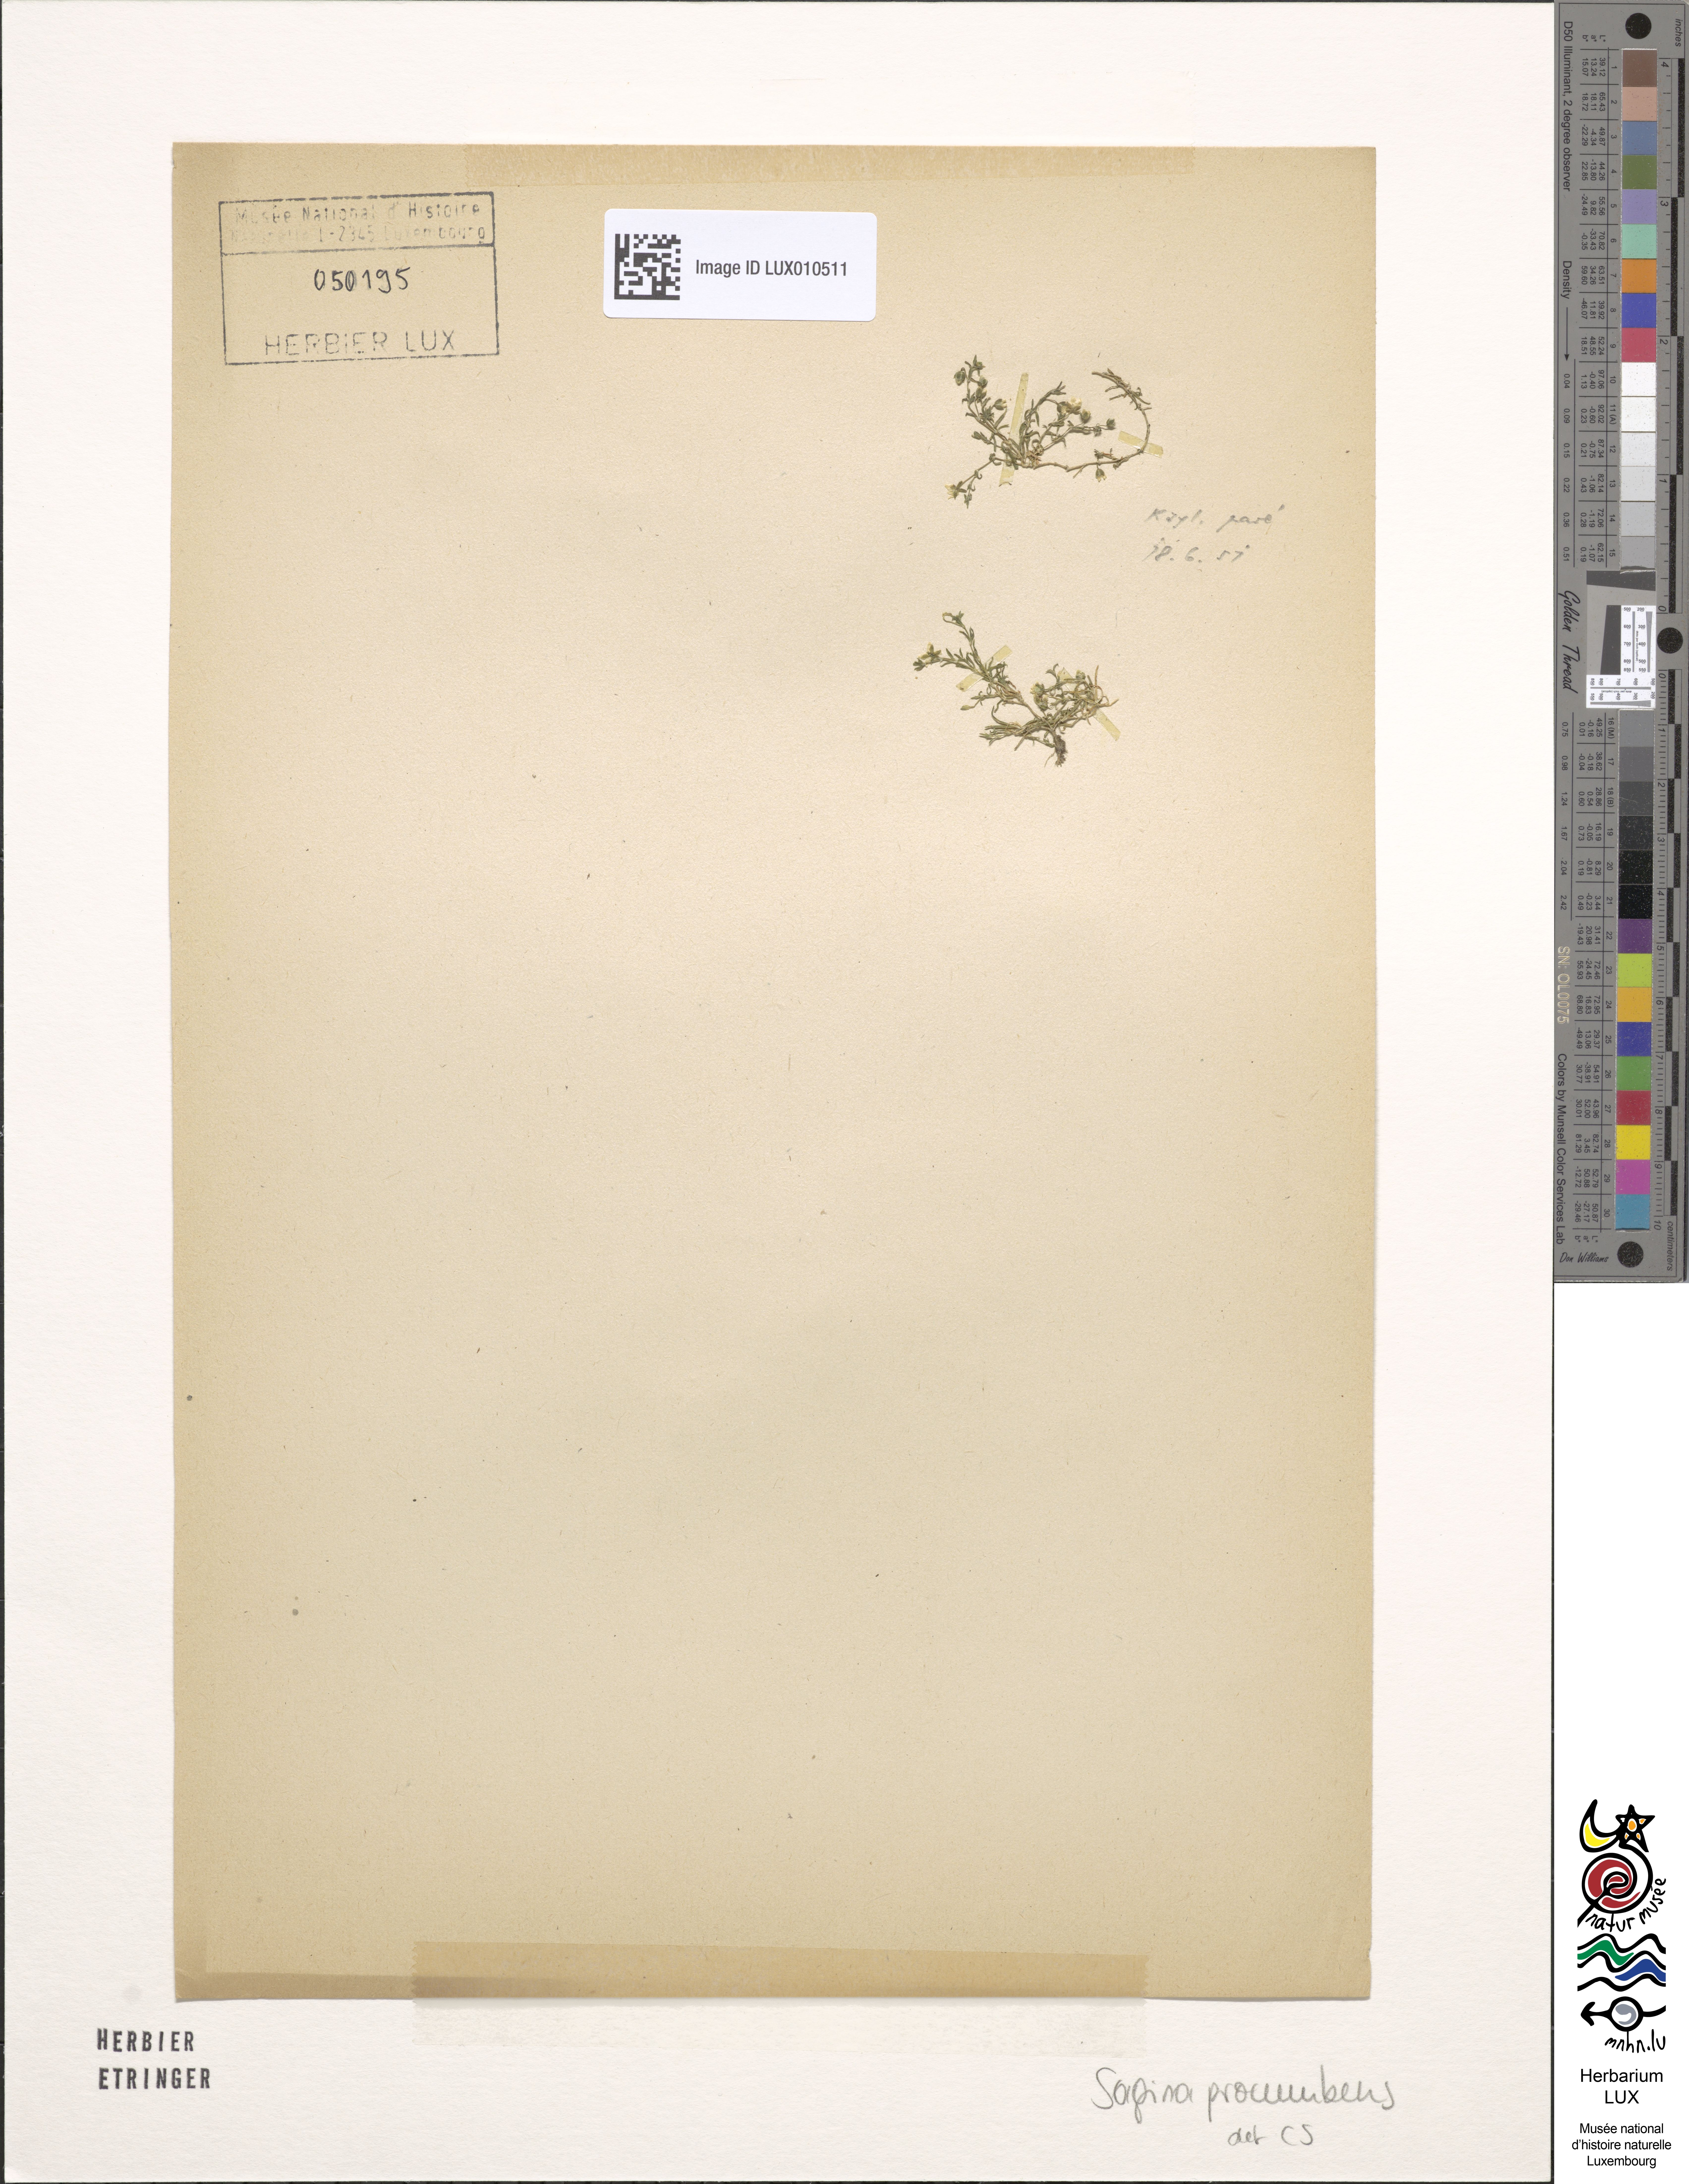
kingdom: Plantae
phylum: Tracheophyta
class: Magnoliopsida
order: Caryophyllales
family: Caryophyllaceae
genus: Sagina
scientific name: Sagina procumbens
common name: Procumbent pearlwort
